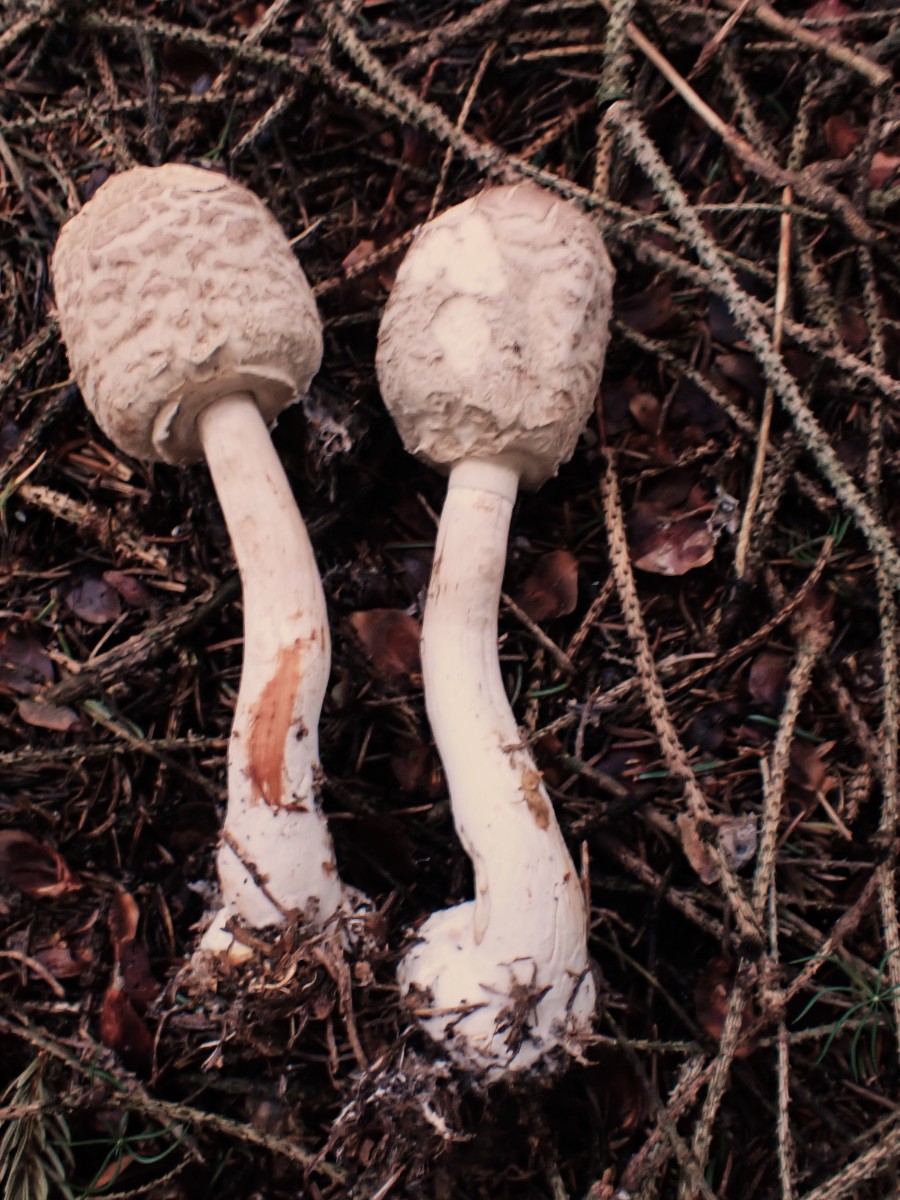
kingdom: Fungi
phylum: Basidiomycota
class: Agaricomycetes
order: Agaricales
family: Agaricaceae
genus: Chlorophyllum
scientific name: Chlorophyllum olivieri
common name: almindelig rabarberhat
